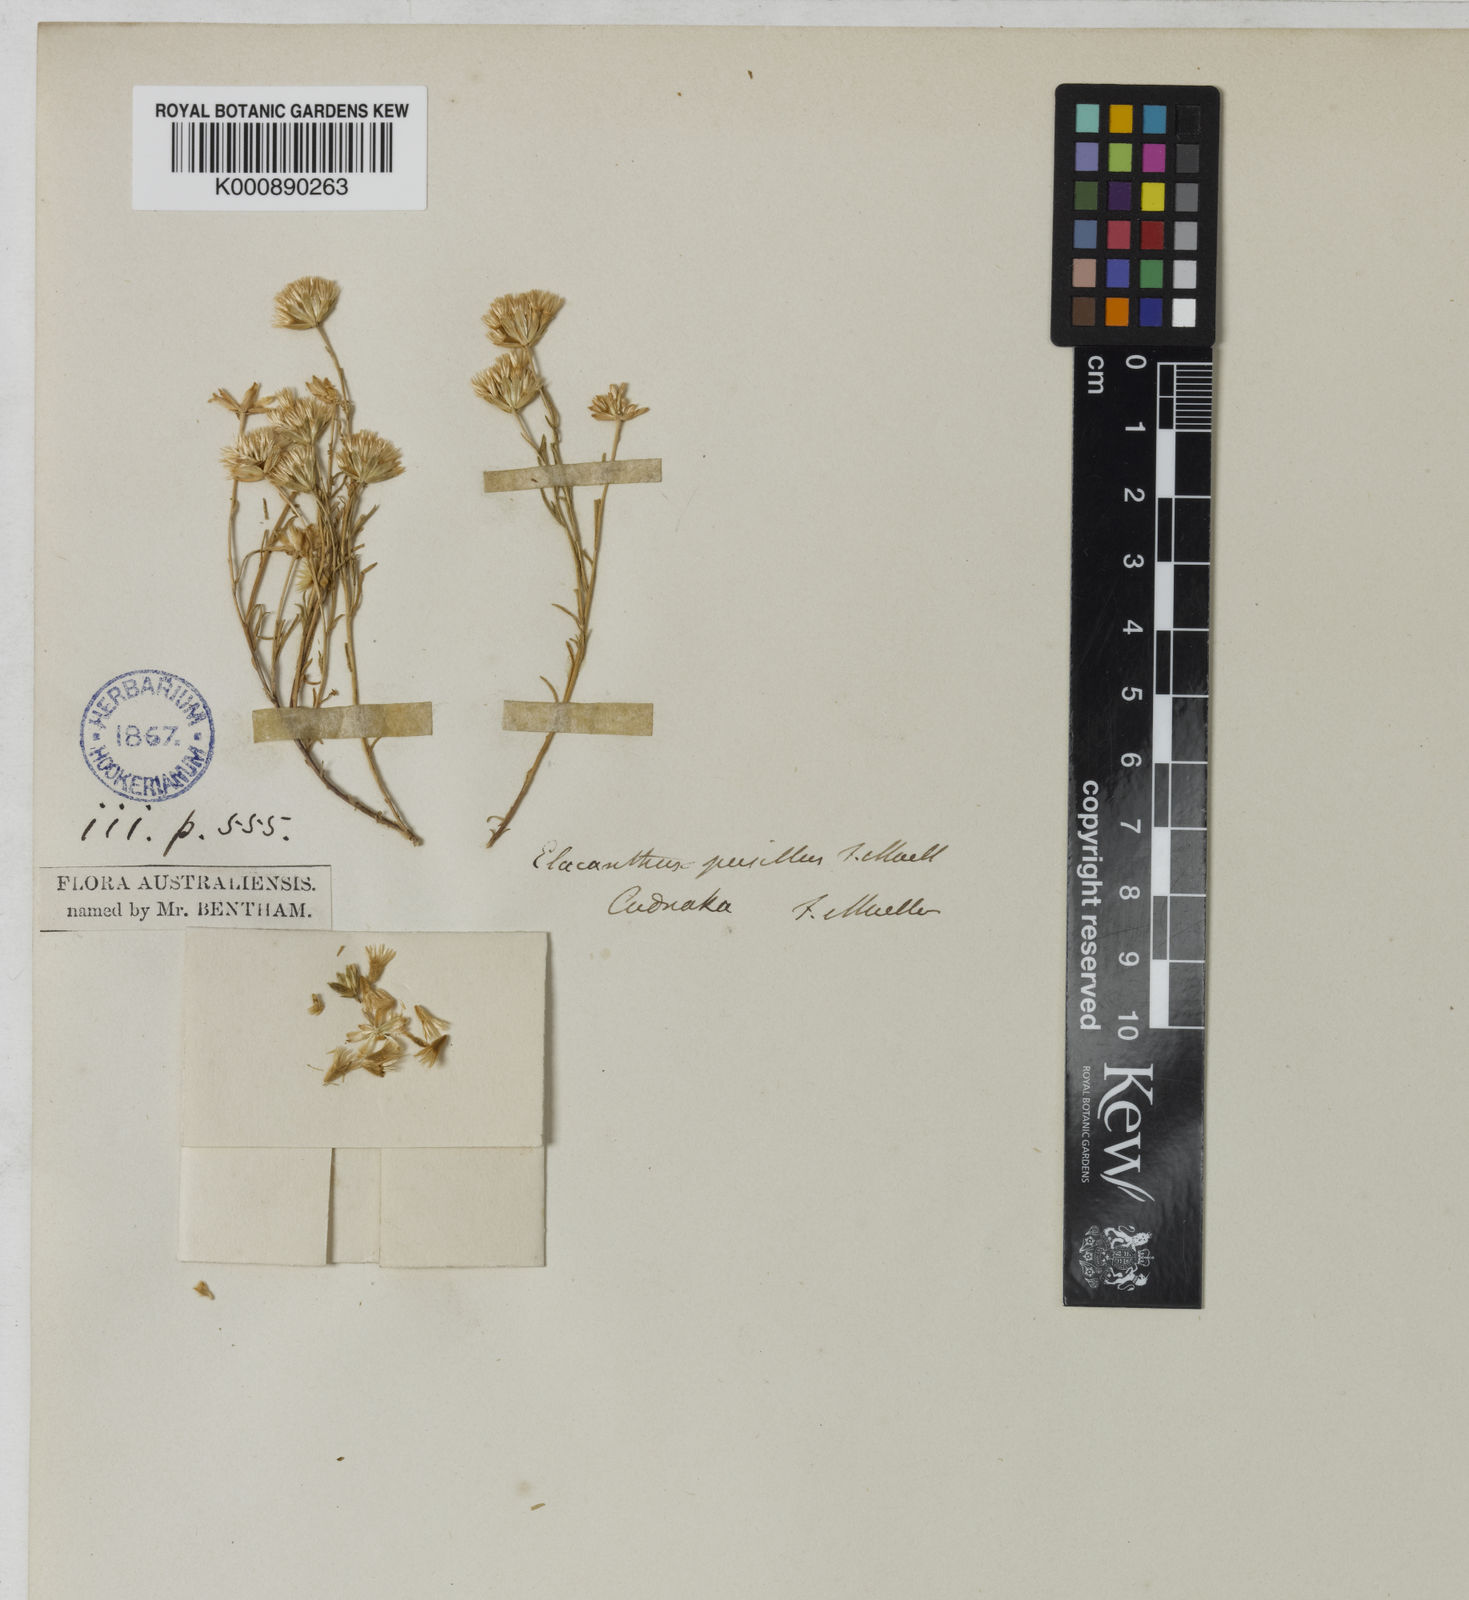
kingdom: Plantae
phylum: Tracheophyta
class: Magnoliopsida
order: Asterales
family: Asteraceae
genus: Elachanthus
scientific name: Elachanthus pusillus
